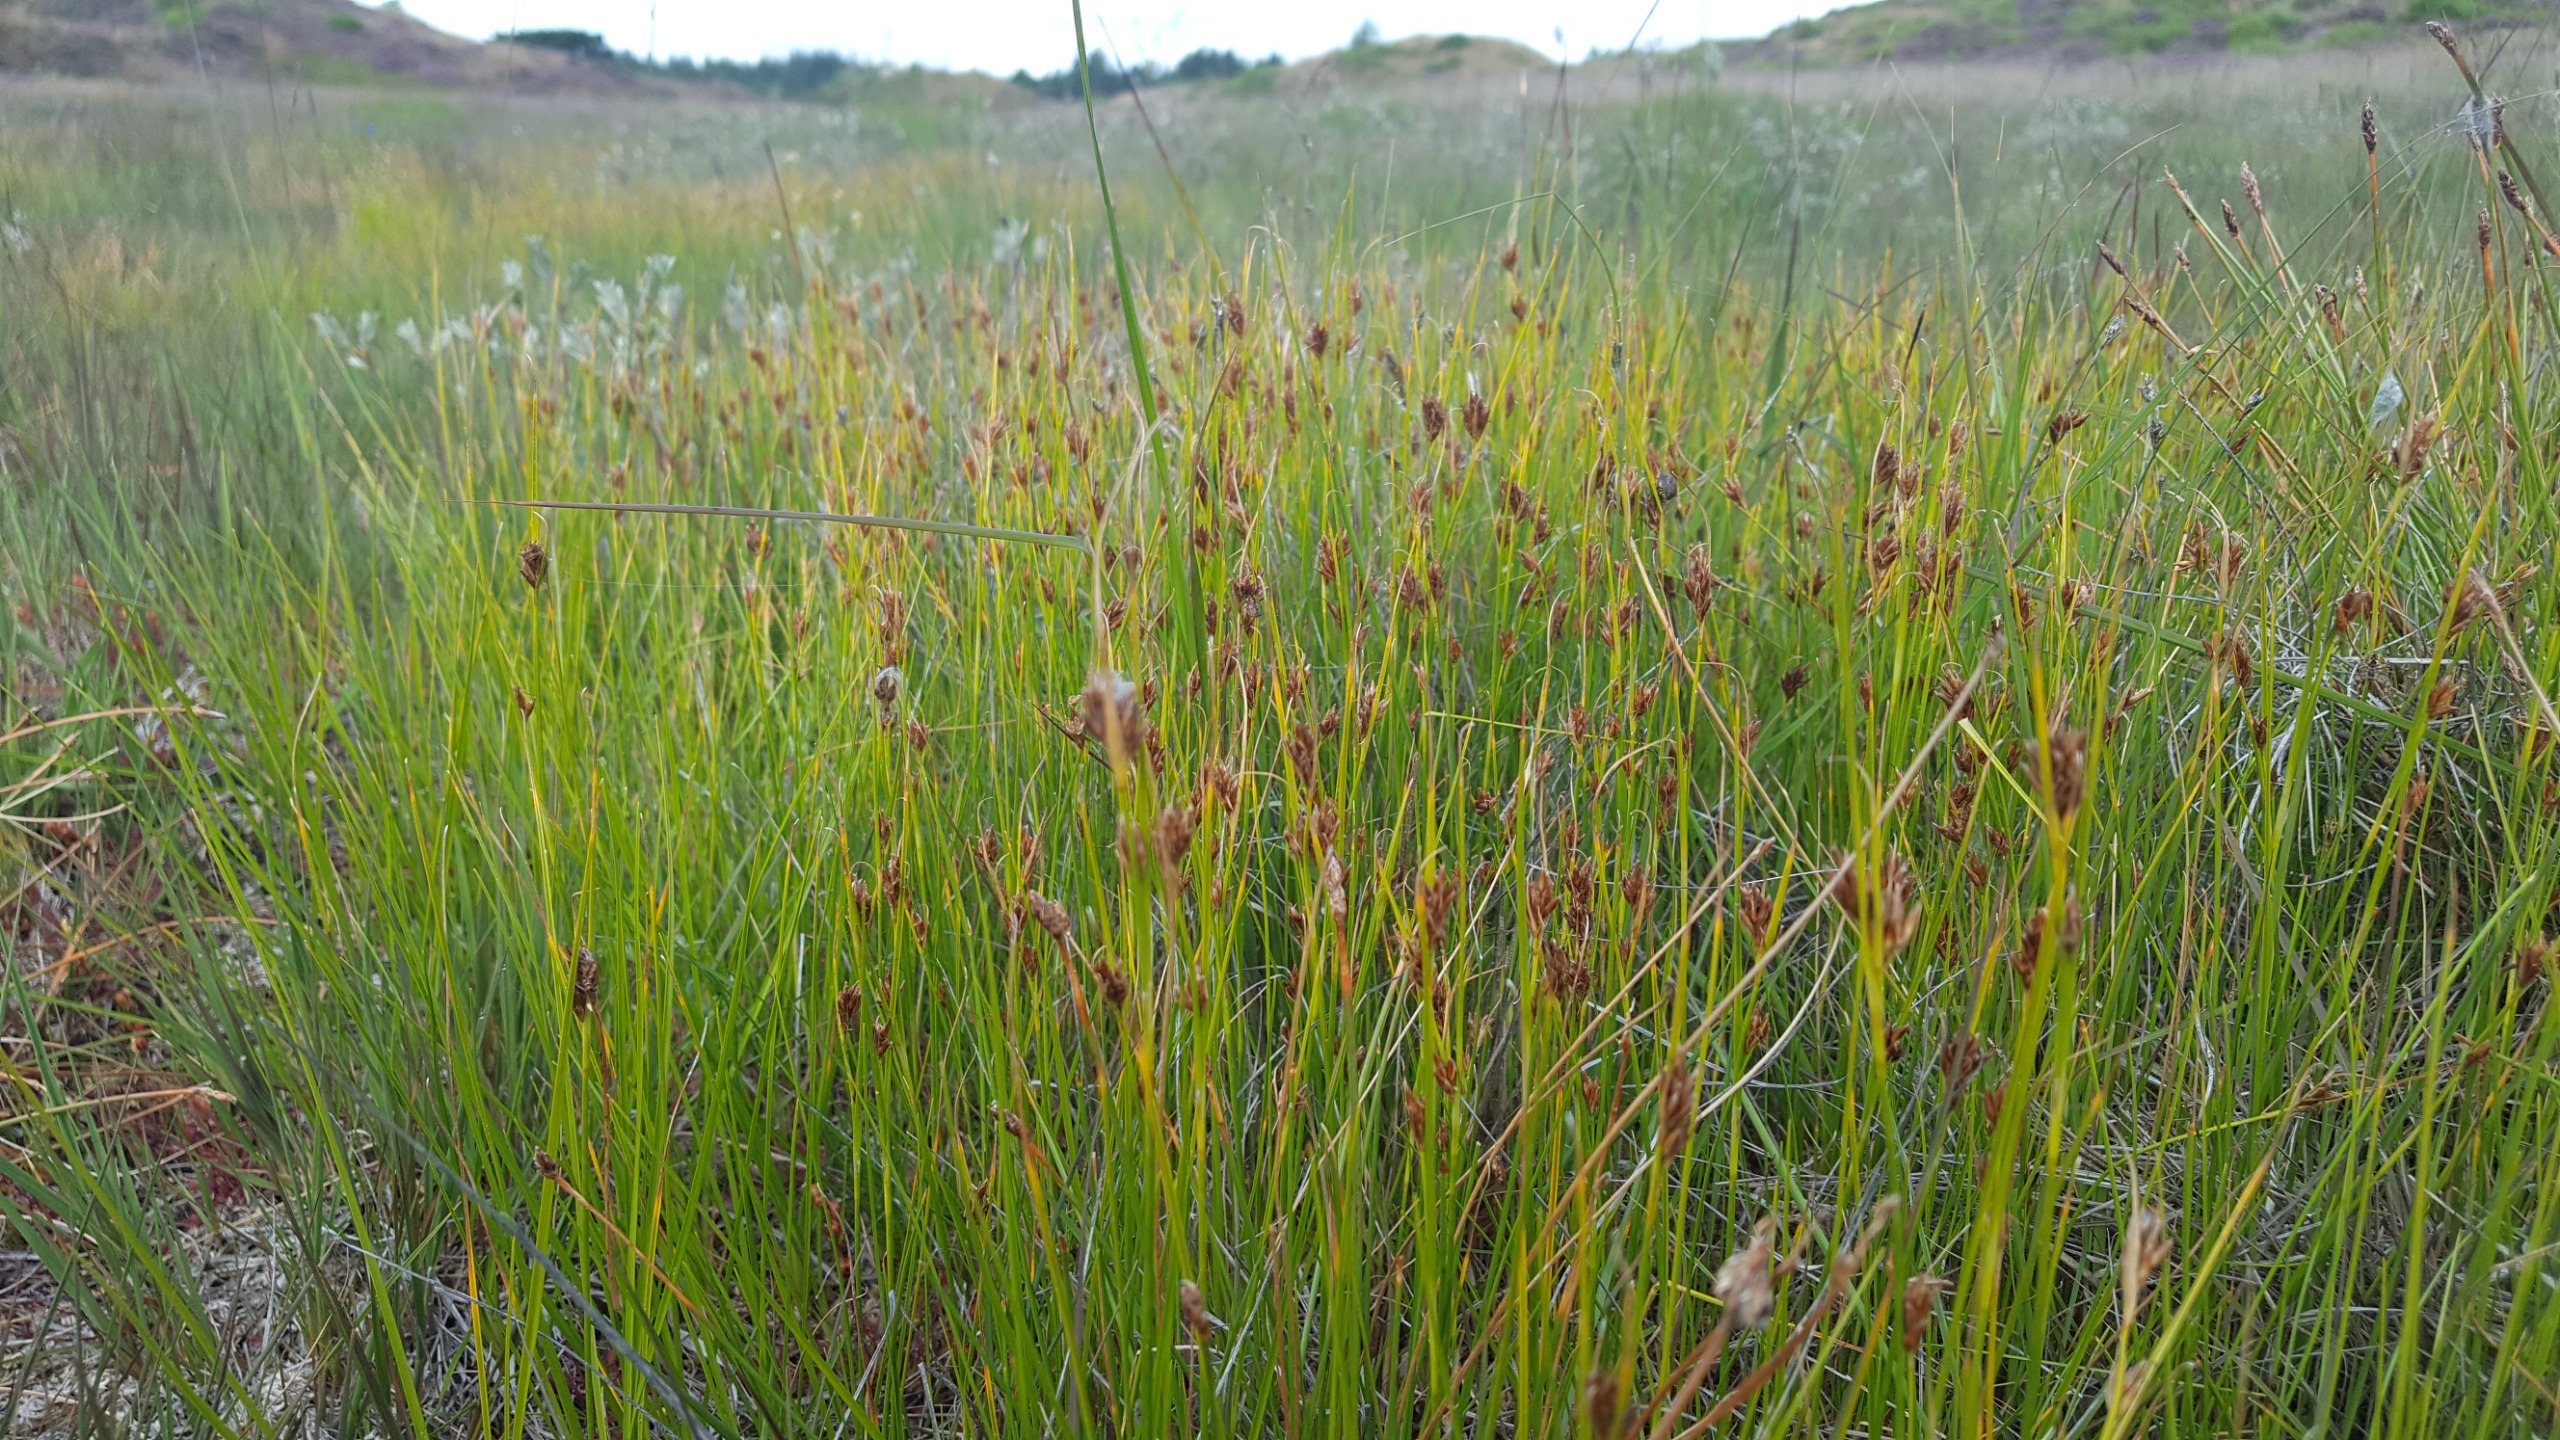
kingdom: Plantae
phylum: Tracheophyta
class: Liliopsida
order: Poales
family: Cyperaceae
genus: Rhynchospora
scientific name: Rhynchospora fusca
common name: Brun næbfrø
